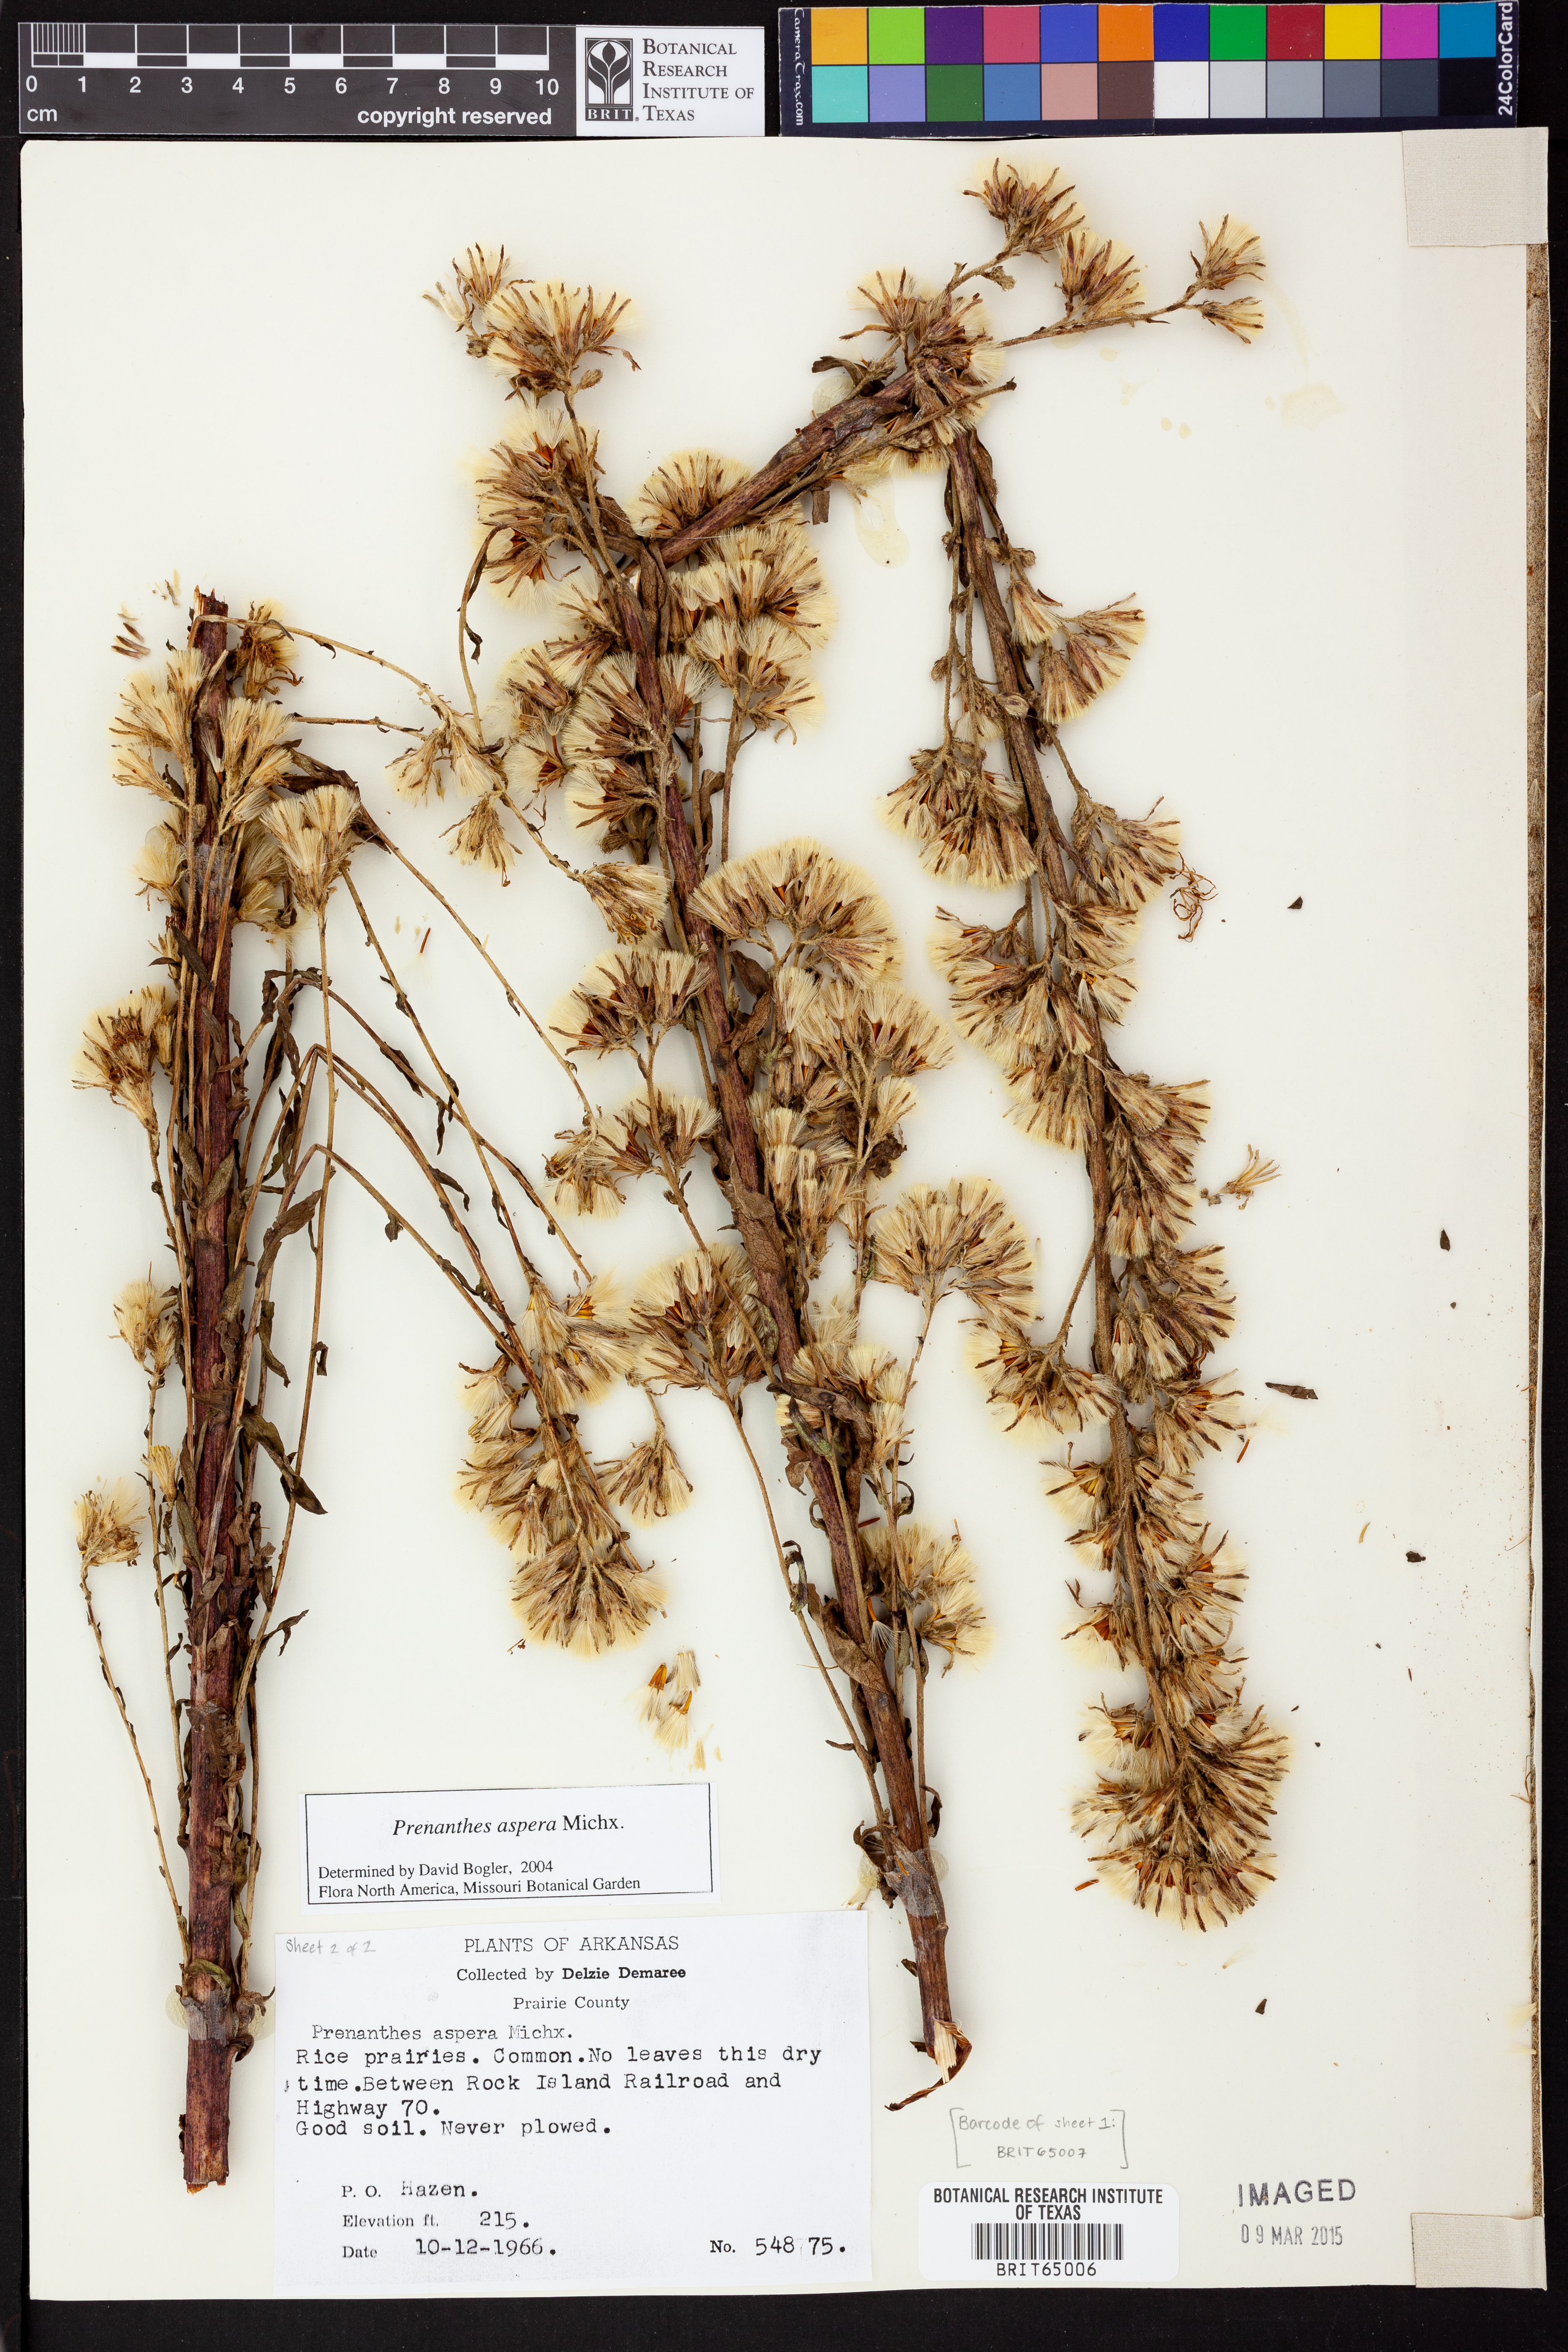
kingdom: Plantae
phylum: Tracheophyta
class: Magnoliopsida
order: Asterales
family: Asteraceae
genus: Nabalus
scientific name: Nabalus asper
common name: Rough rattlesnakeroot
